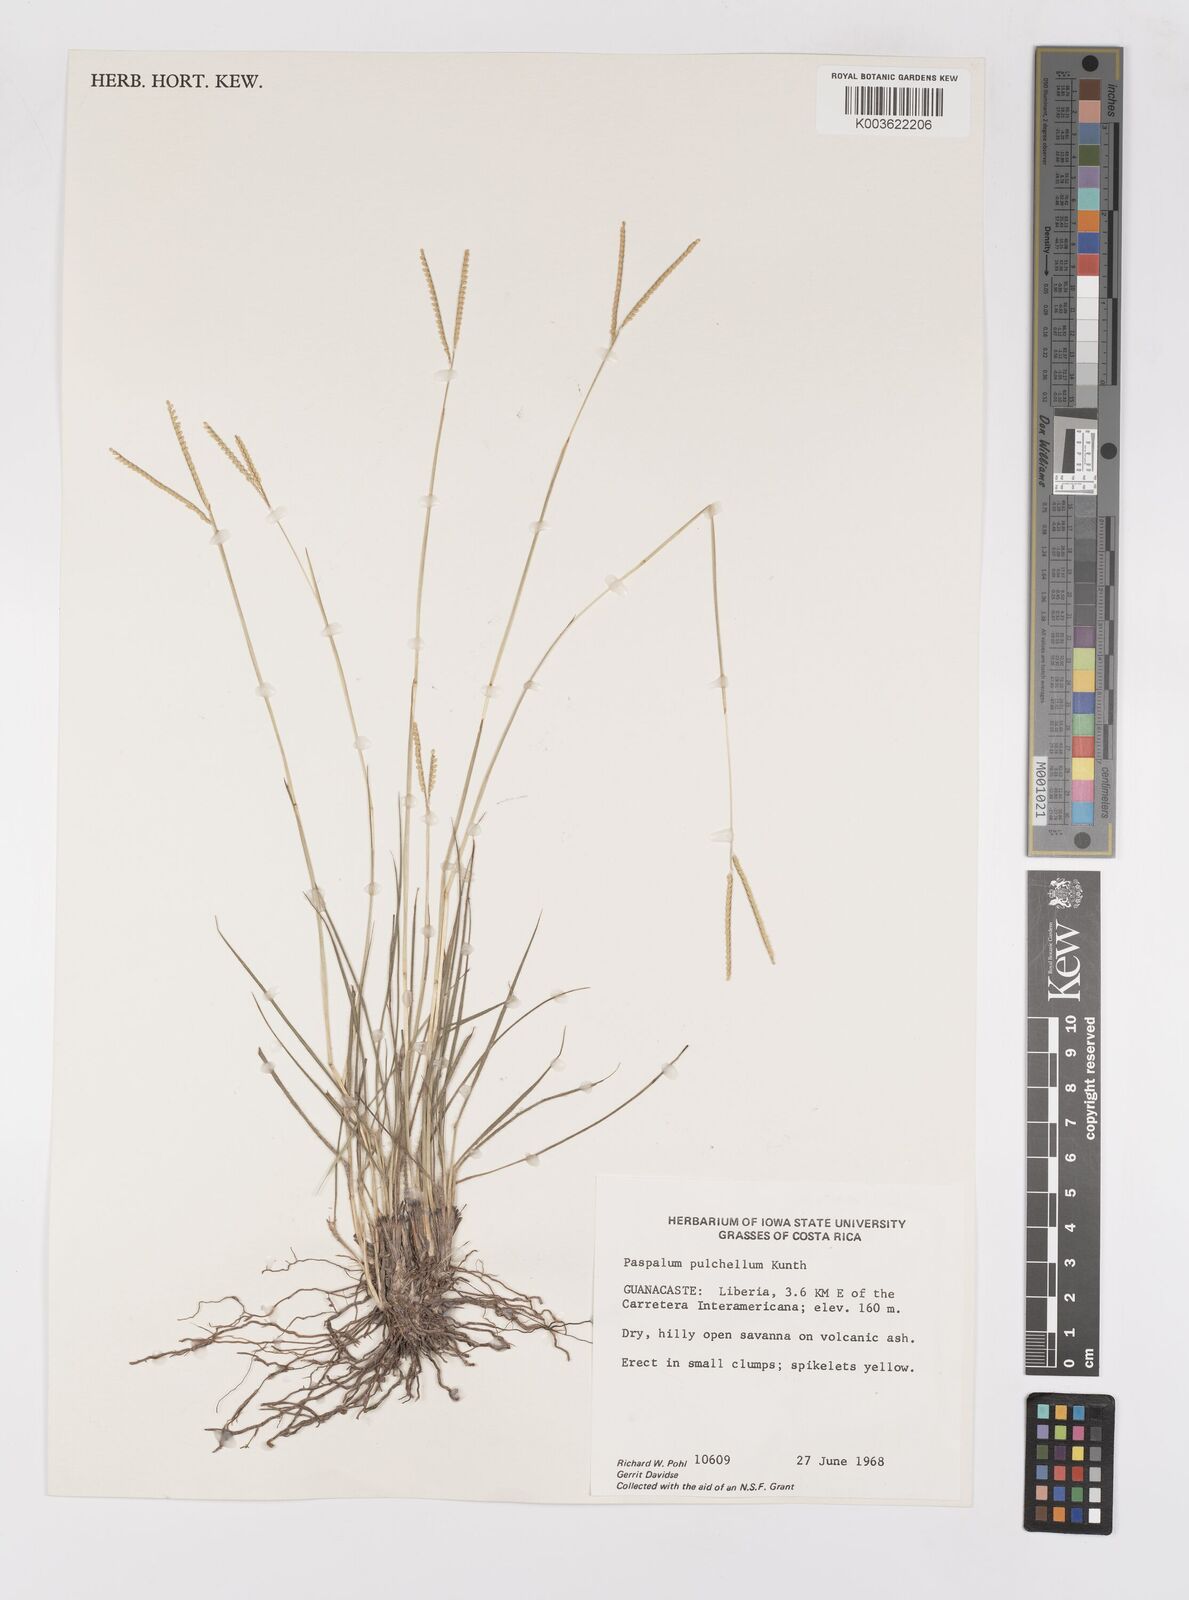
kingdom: Plantae
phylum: Tracheophyta
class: Liliopsida
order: Poales
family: Poaceae
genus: Paspalum
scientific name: Paspalum pulchellum
